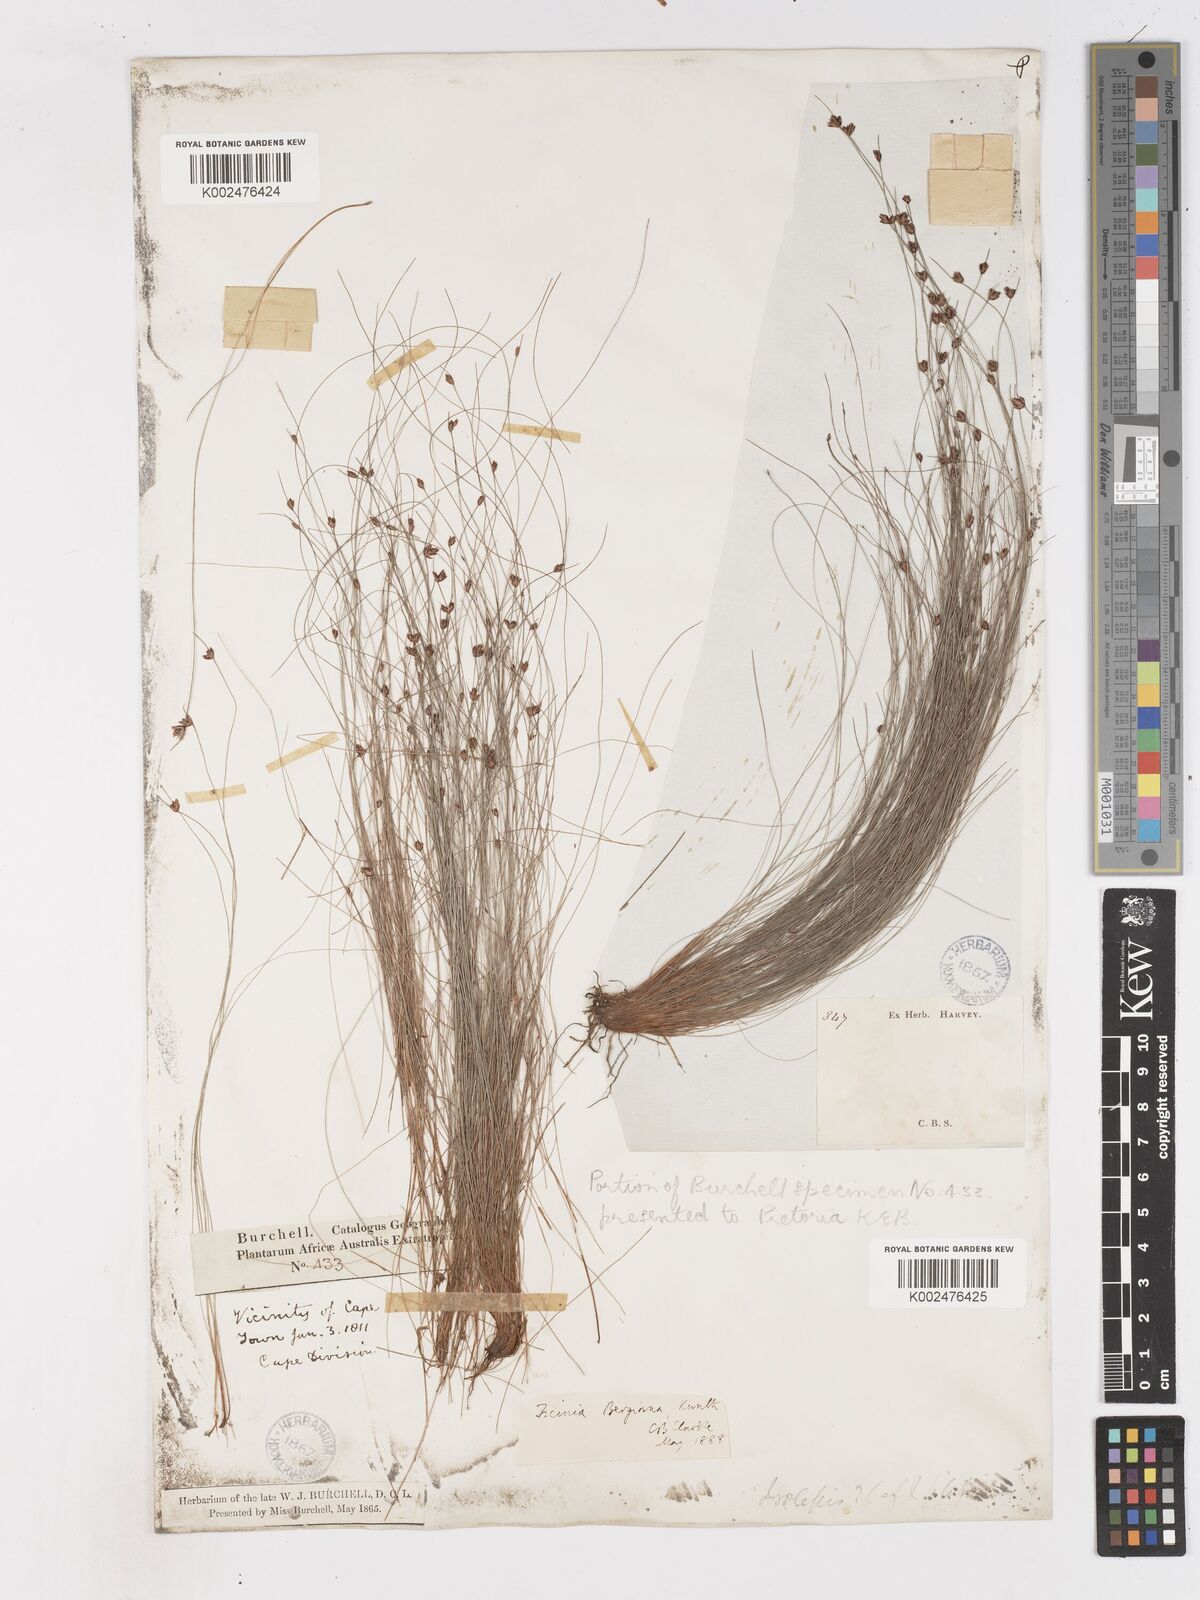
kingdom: Plantae
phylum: Tracheophyta
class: Liliopsida
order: Poales
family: Cyperaceae
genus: Ficinia
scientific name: Ficinia crinita
